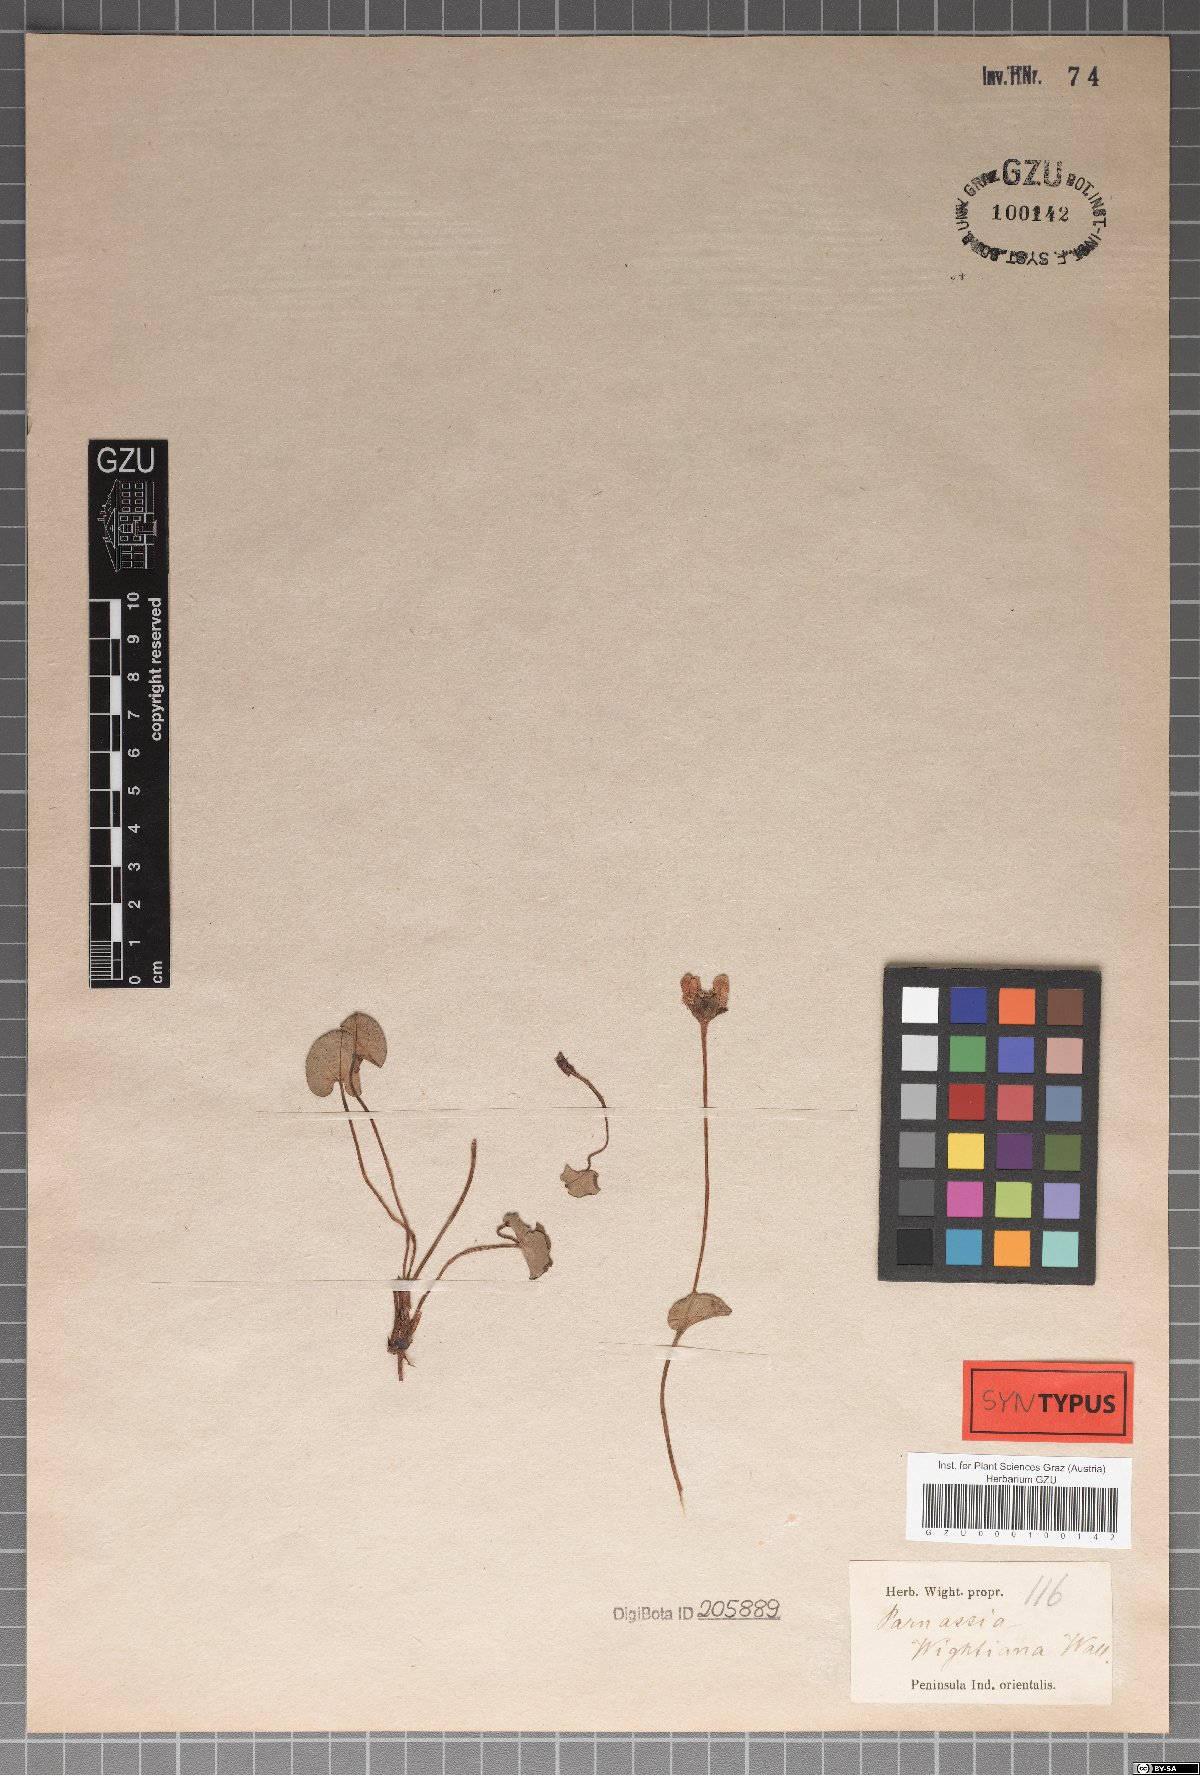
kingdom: Plantae
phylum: Tracheophyta
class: Magnoliopsida
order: Celastrales
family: Parnassiaceae
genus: Parnassia
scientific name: Parnassia wightiana
